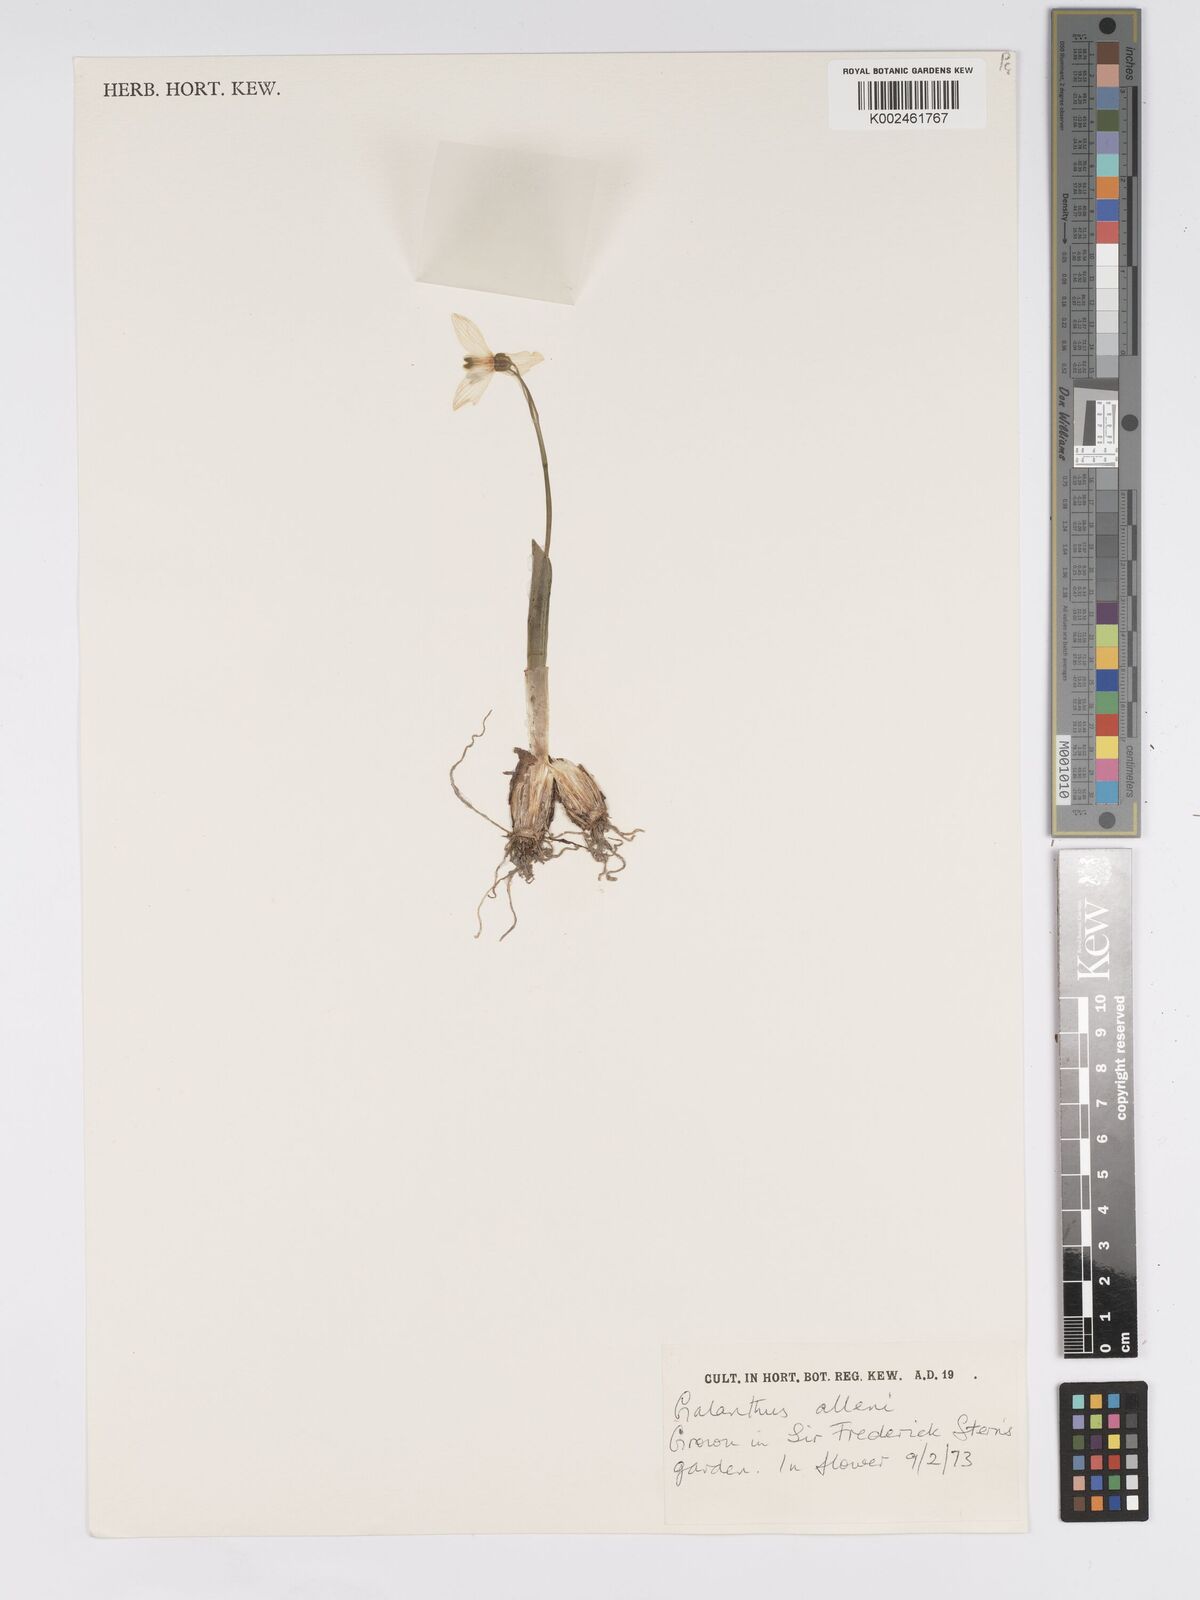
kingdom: Plantae
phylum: Tracheophyta
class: Liliopsida
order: Asparagales
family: Amaryllidaceae
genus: Galanthus
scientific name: Galanthus allenii
